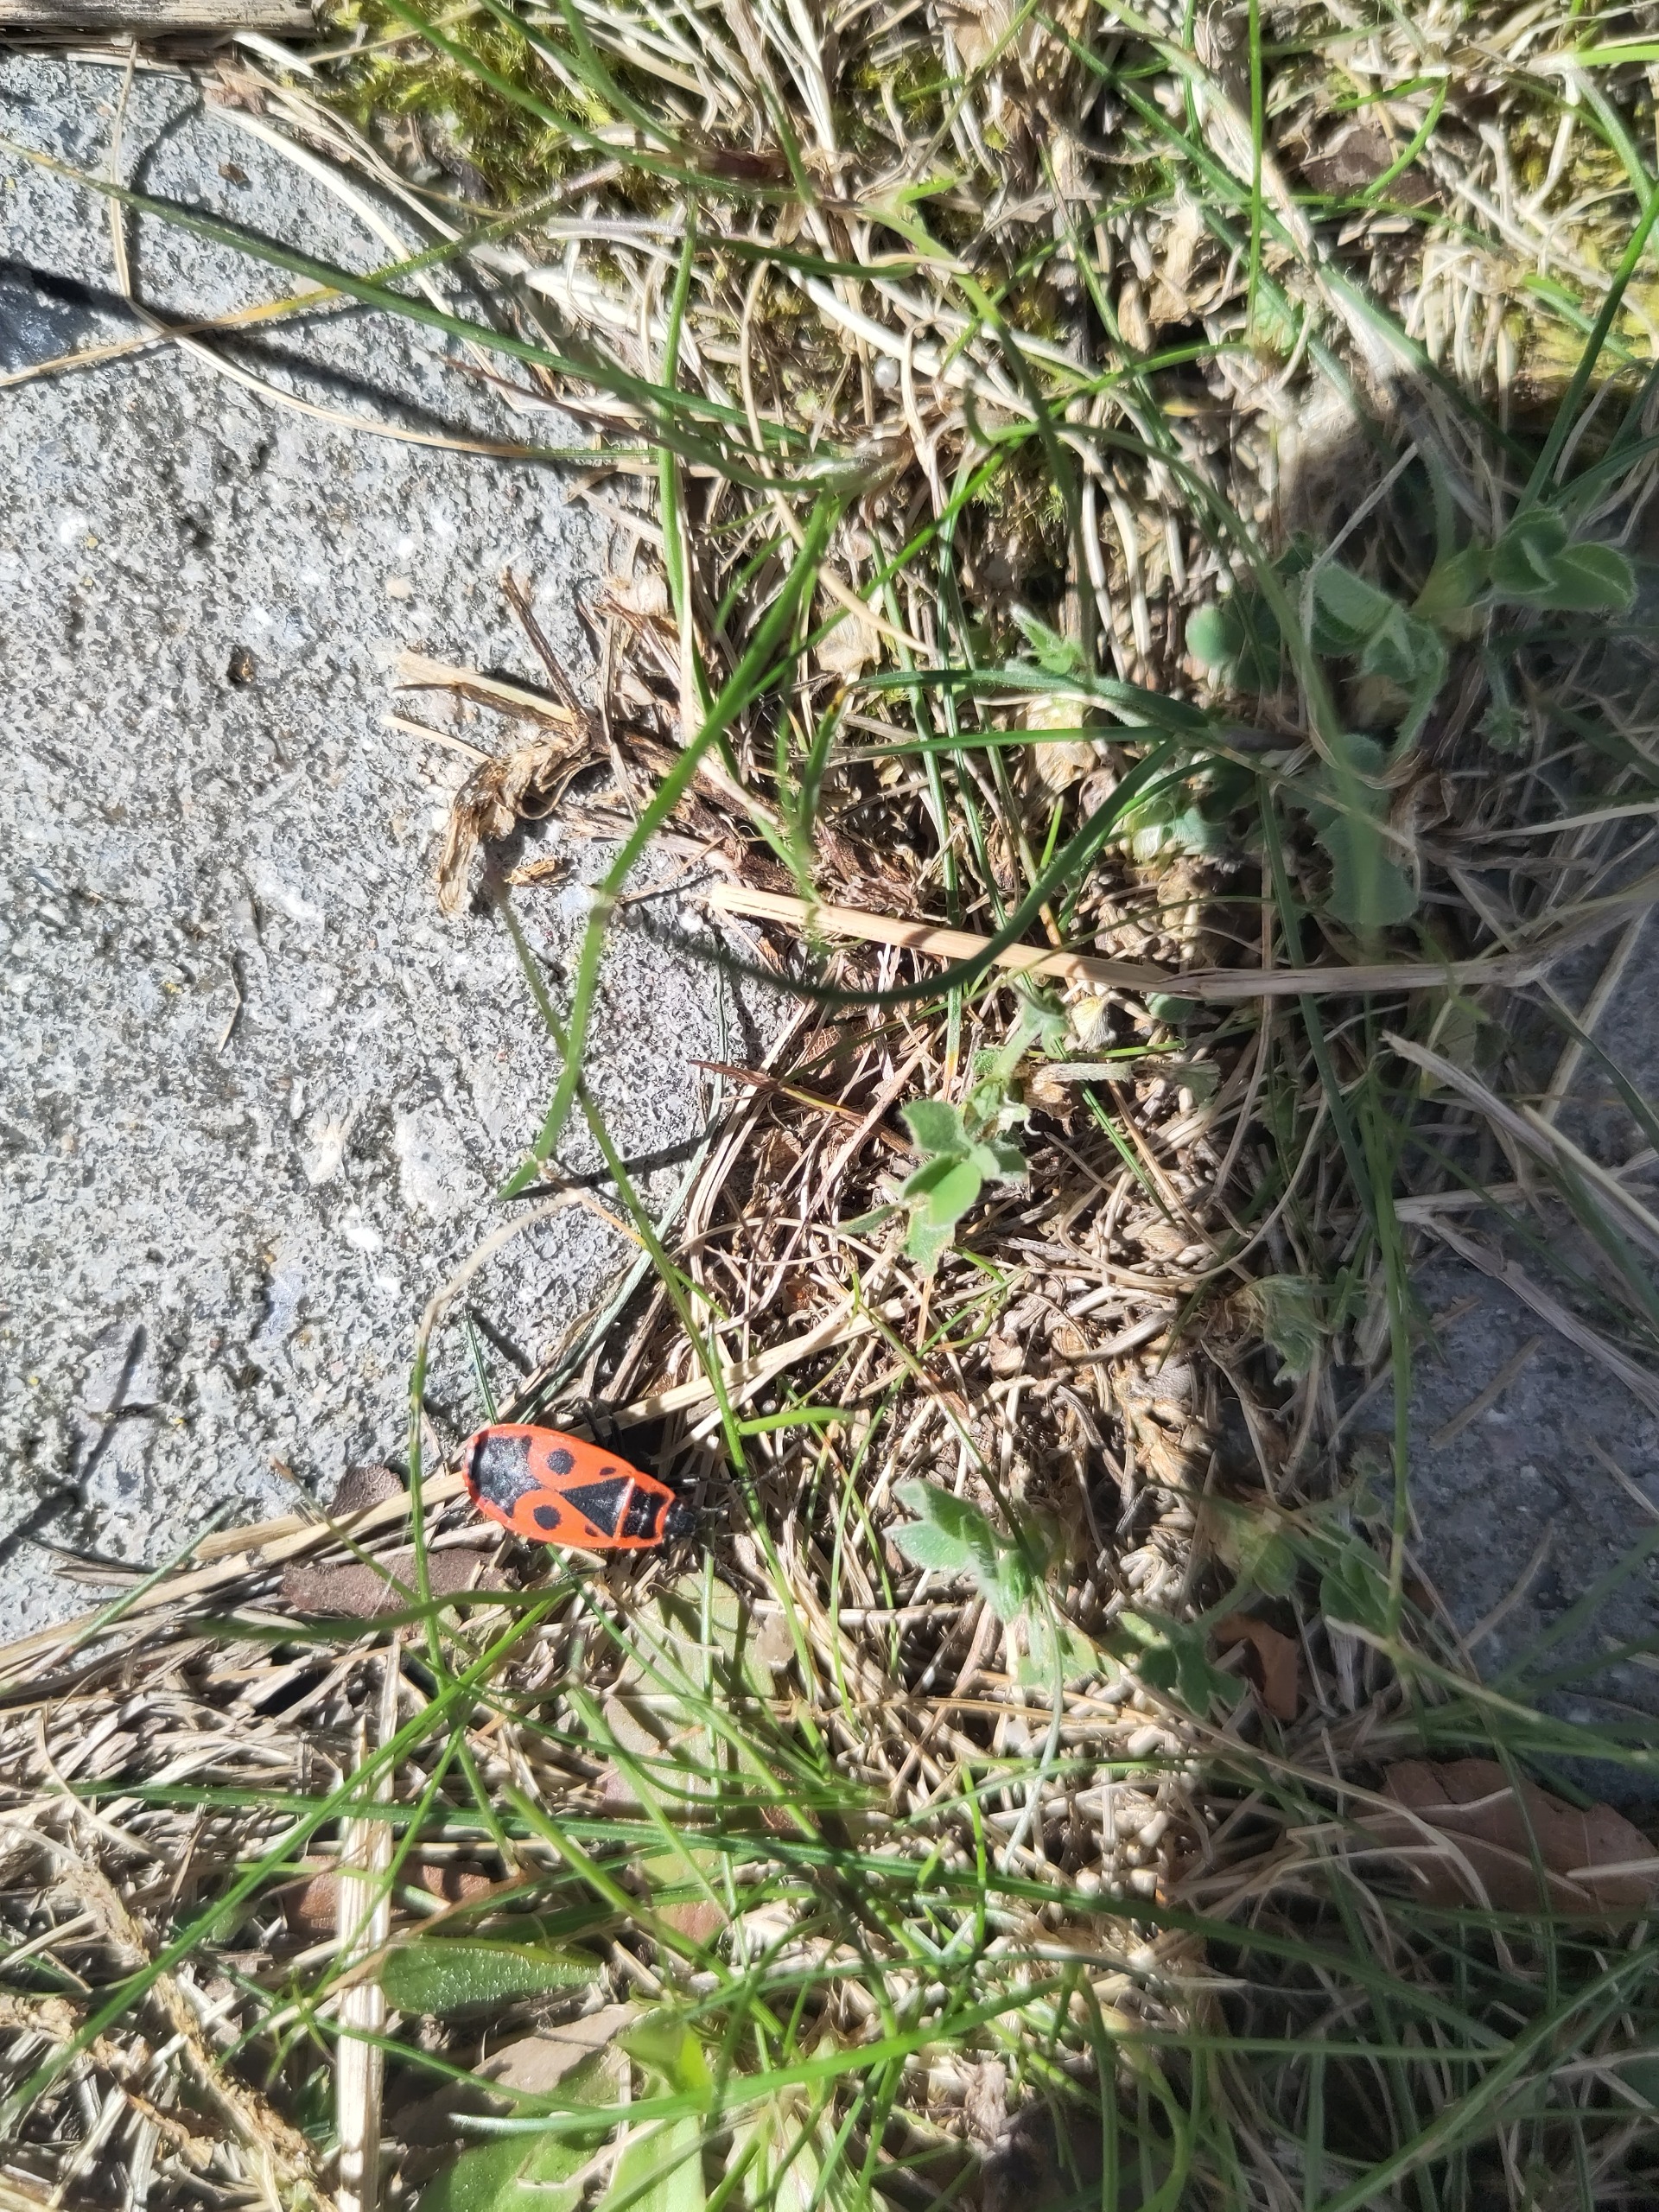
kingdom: Animalia
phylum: Arthropoda
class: Insecta
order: Hemiptera
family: Pyrrhocoridae
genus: Pyrrhocoris
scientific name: Pyrrhocoris apterus
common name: Ildtæge
